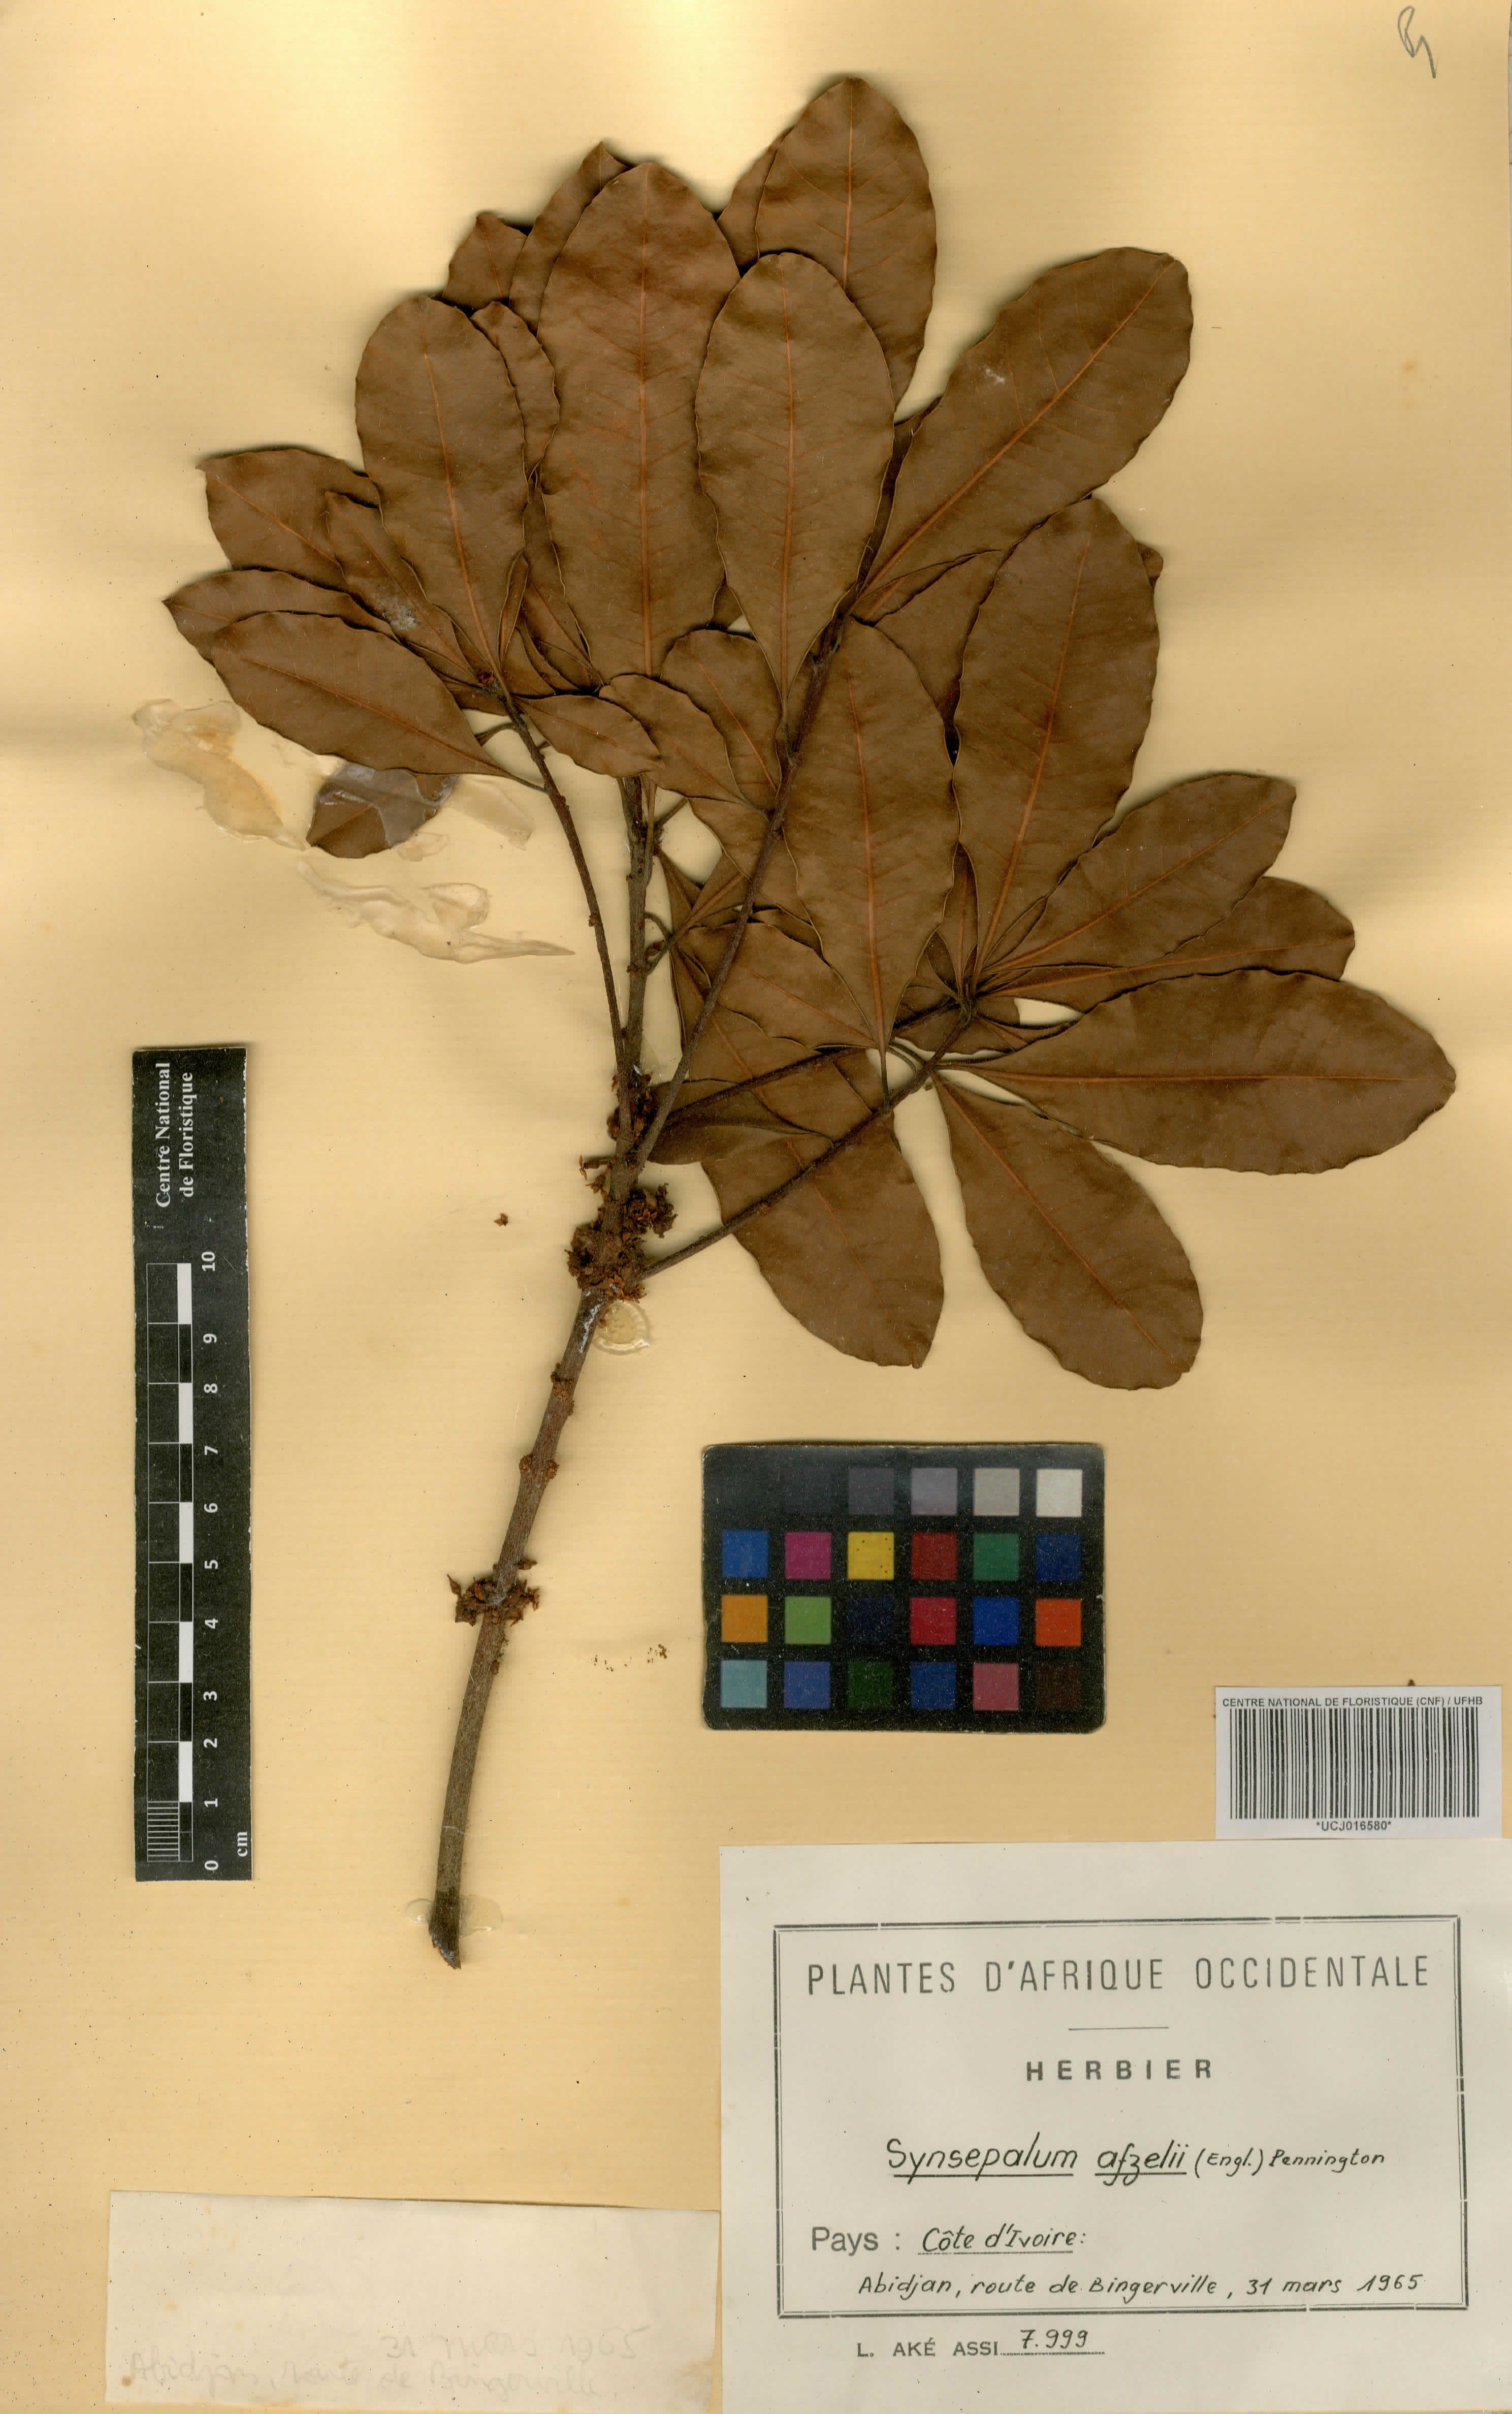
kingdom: Plantae
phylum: Tracheophyta
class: Magnoliopsida
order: Ericales
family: Sapotaceae
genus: Synsepalum
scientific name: Synsepalum afzelii
